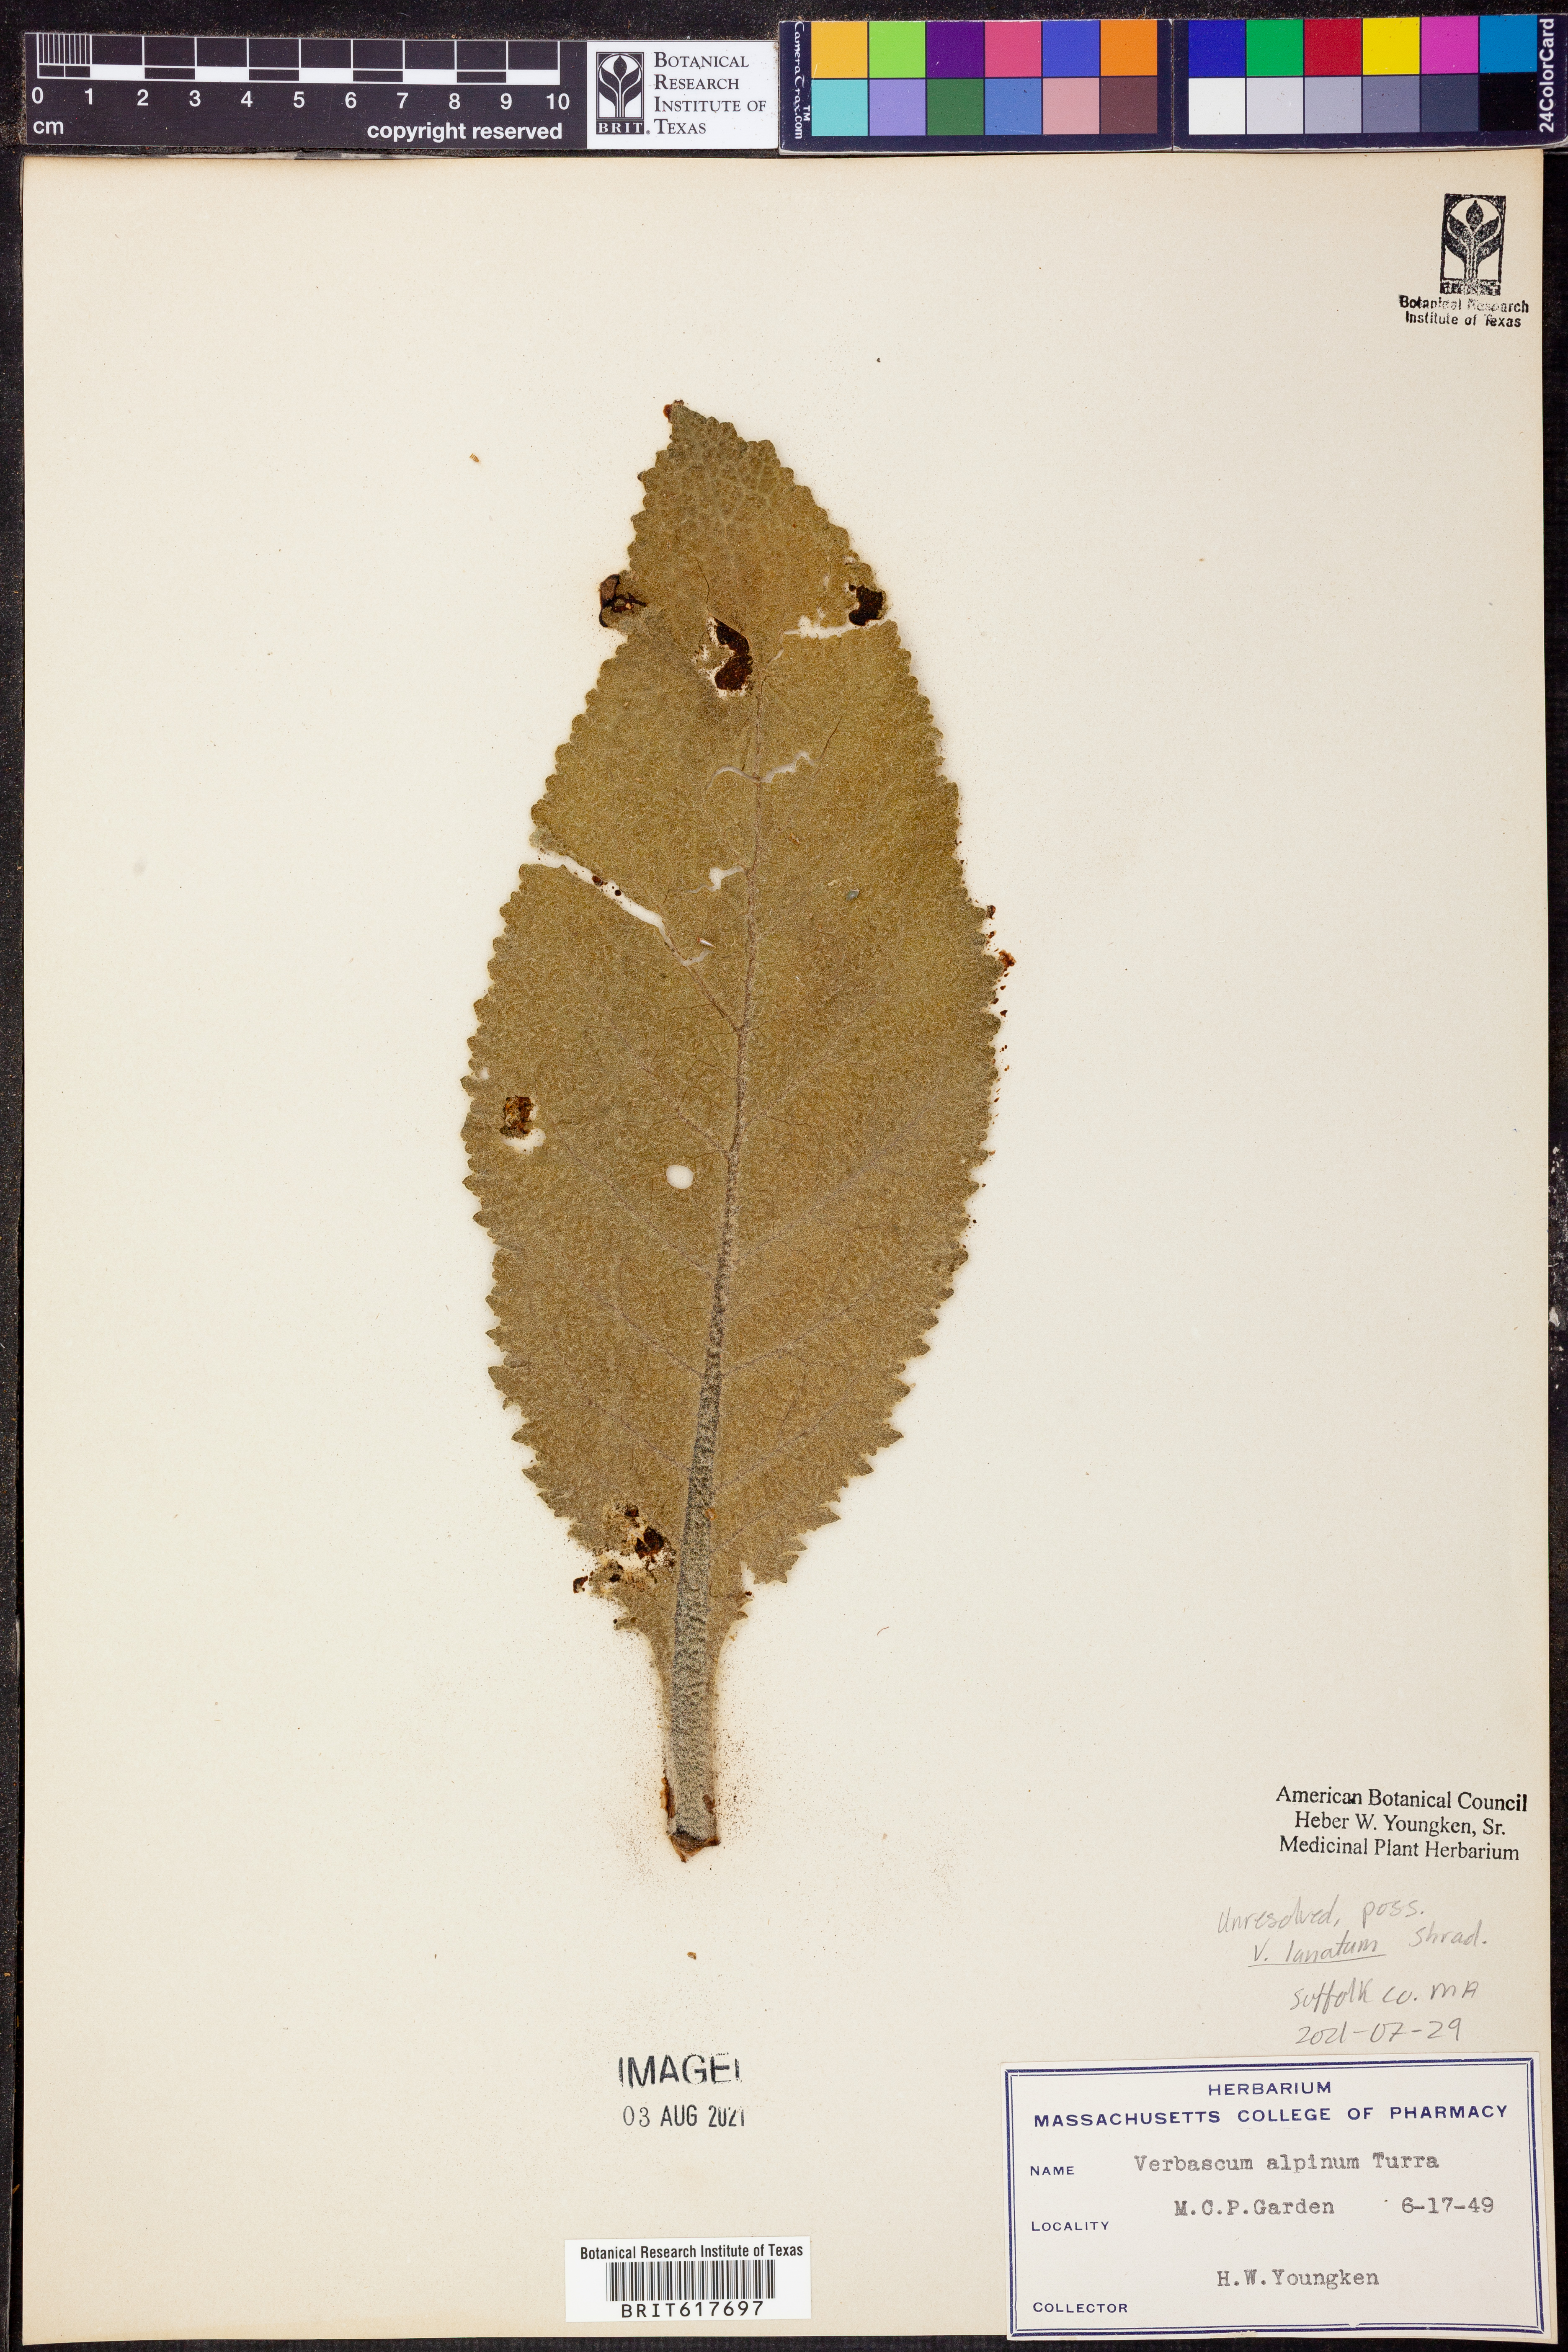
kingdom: Plantae
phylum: Tracheophyta
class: Magnoliopsida
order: Lamiales
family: Scrophulariaceae
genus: Verbascum
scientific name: Verbascum antilibanoticum
